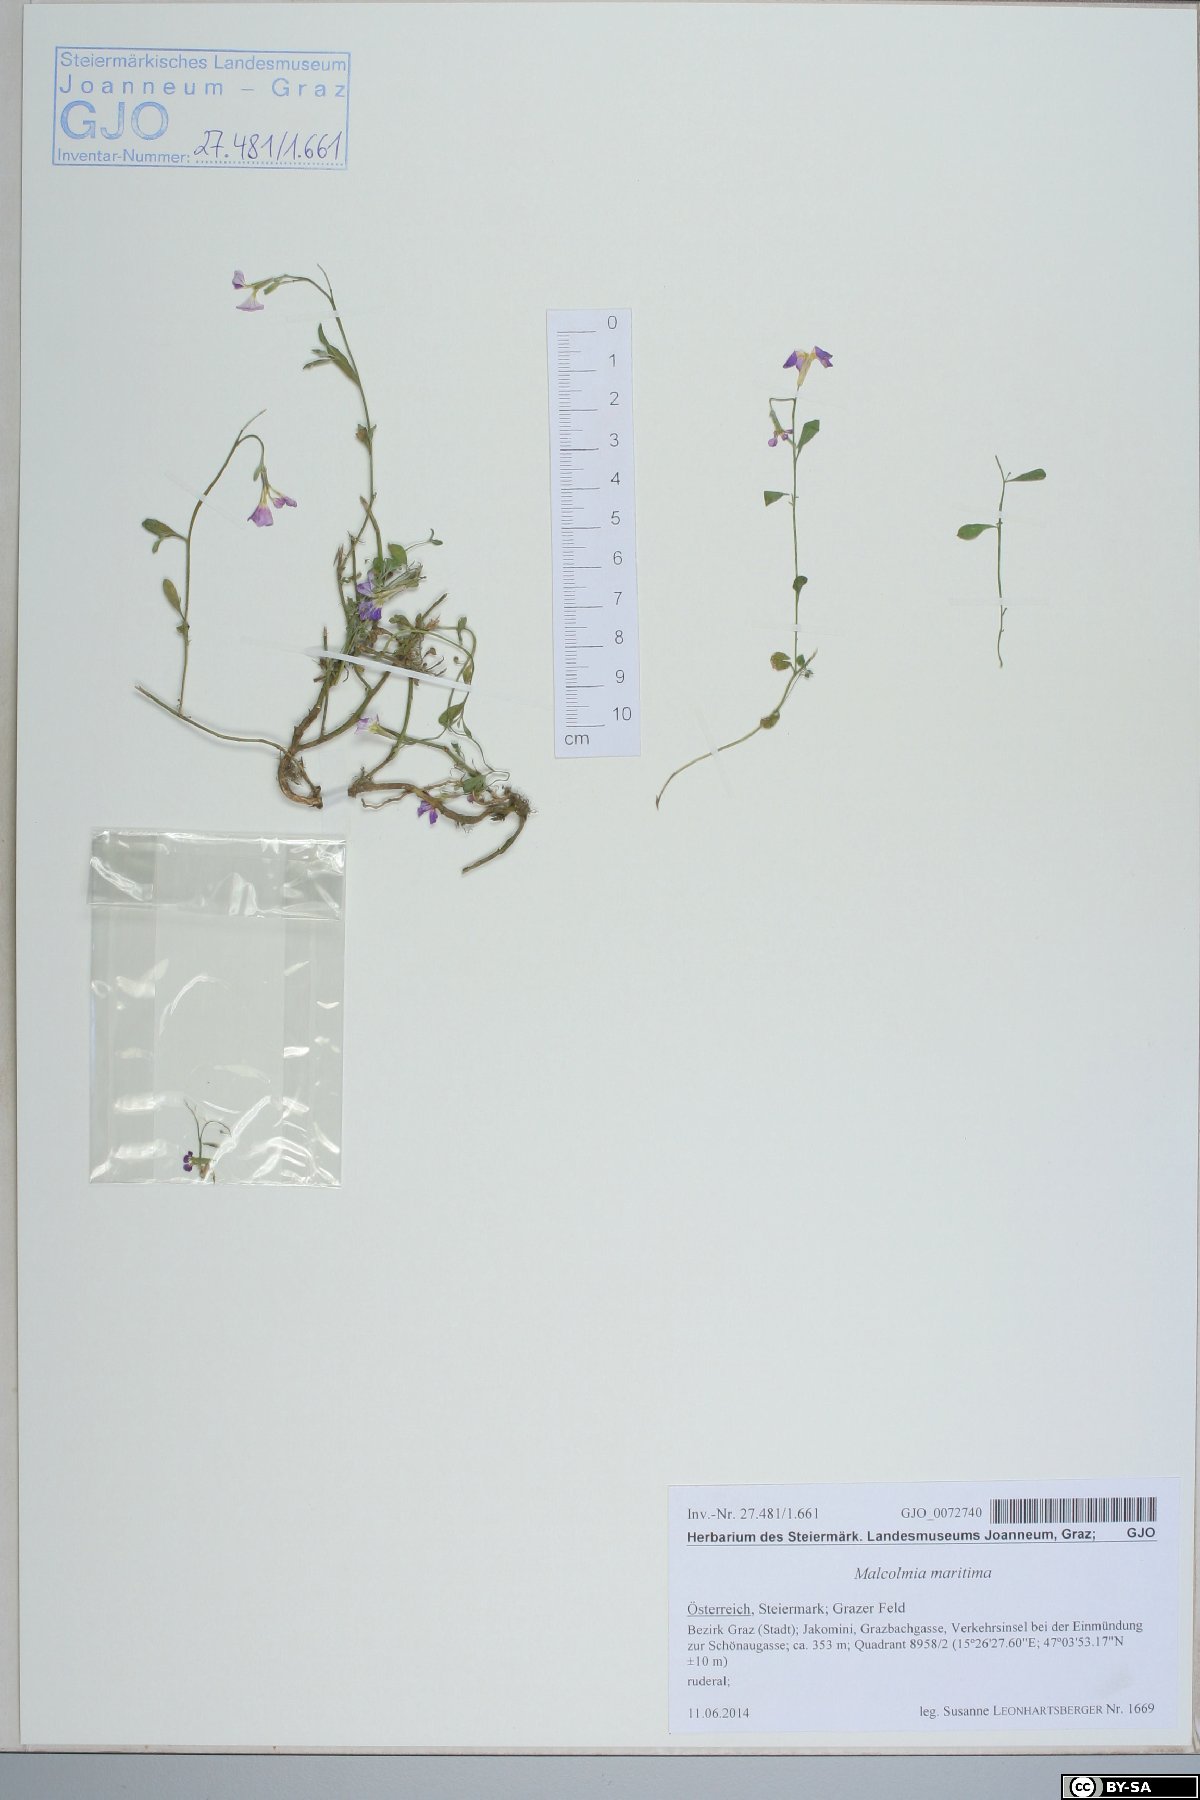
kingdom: Plantae
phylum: Tracheophyta
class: Magnoliopsida
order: Brassicales
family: Brassicaceae
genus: Malcolmia
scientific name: Malcolmia maritima
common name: Virginia stock
